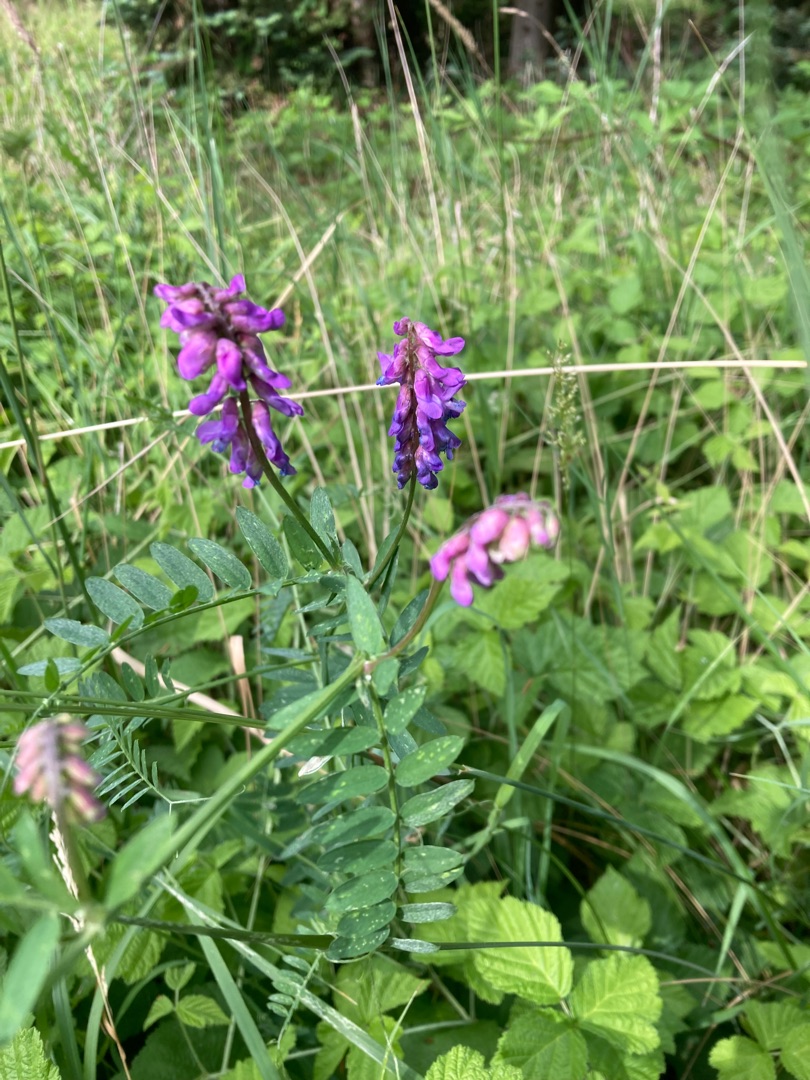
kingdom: Plantae
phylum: Tracheophyta
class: Magnoliopsida
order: Fabales
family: Fabaceae
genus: Vicia
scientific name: Vicia cracca
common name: Muse-vikke
